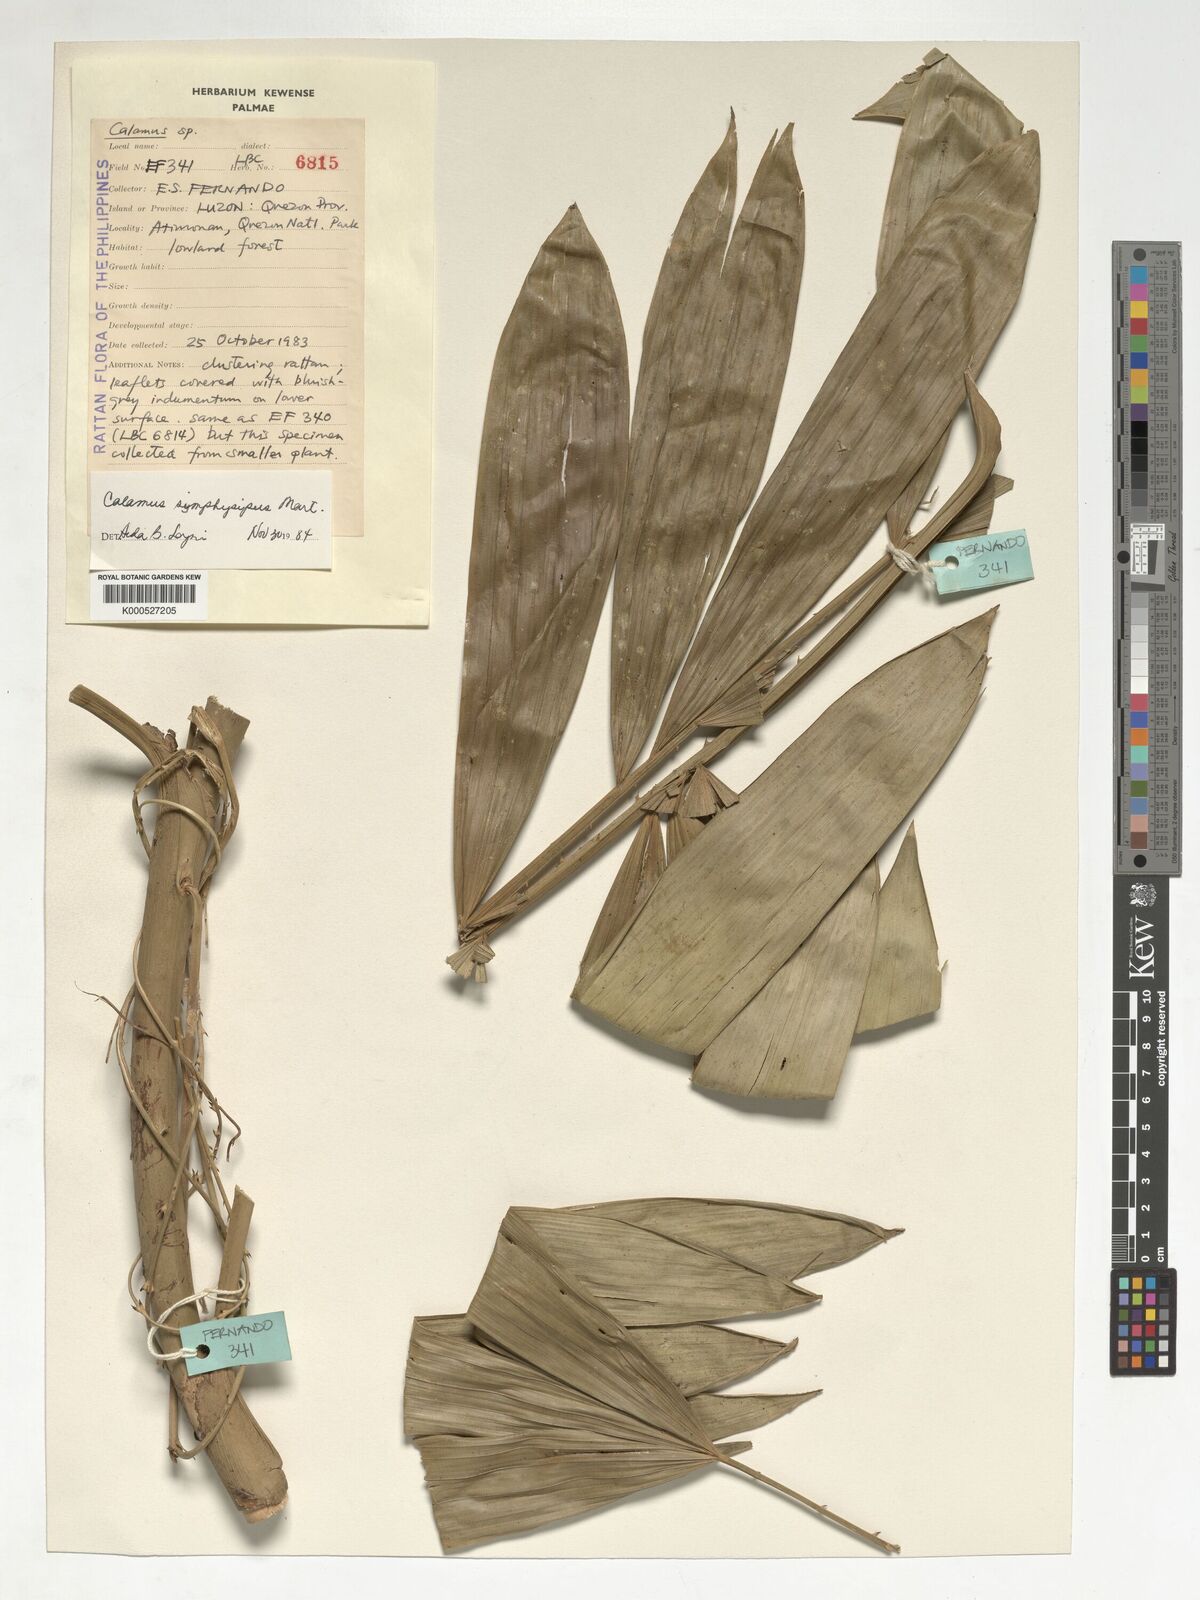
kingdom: Plantae
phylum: Tracheophyta
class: Liliopsida
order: Arecales
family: Arecaceae
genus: Calamus
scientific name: Calamus symphysipus
